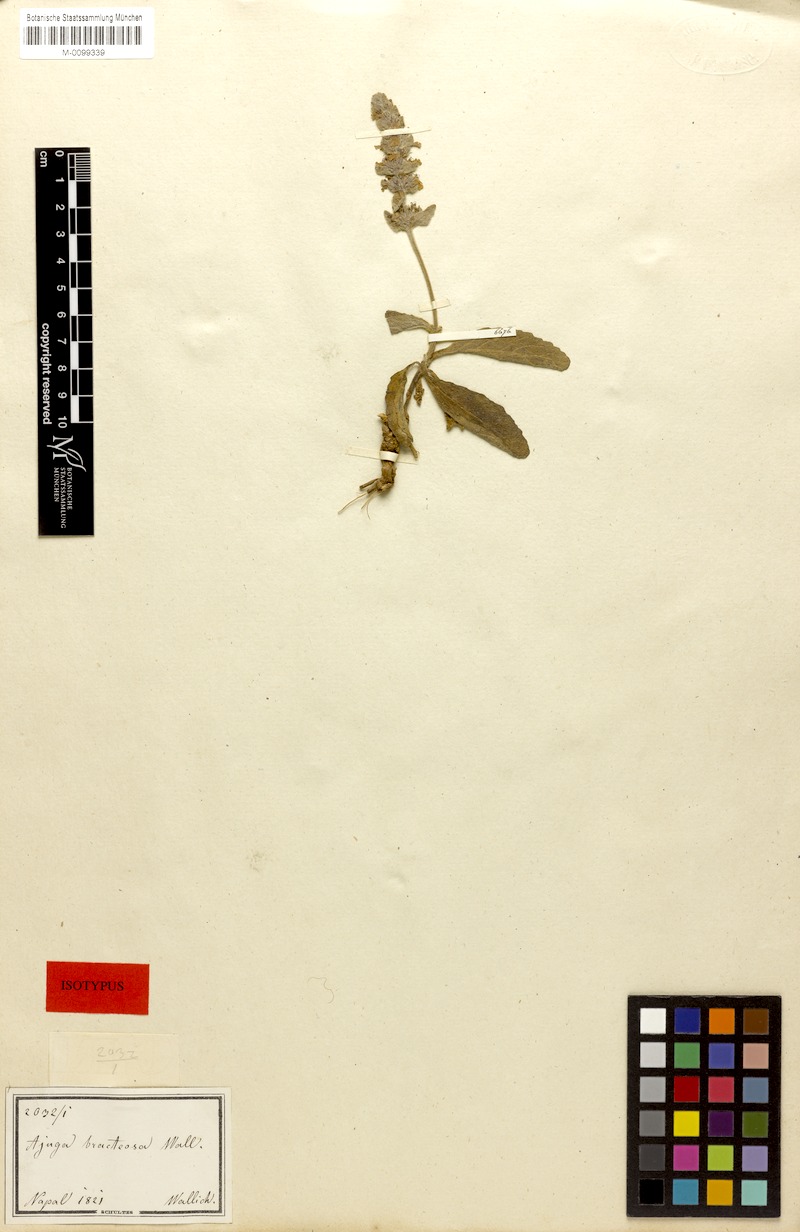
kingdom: Plantae
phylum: Tracheophyta
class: Magnoliopsida
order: Lamiales
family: Lamiaceae
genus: Ajuga
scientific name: Ajuga integrifolia
